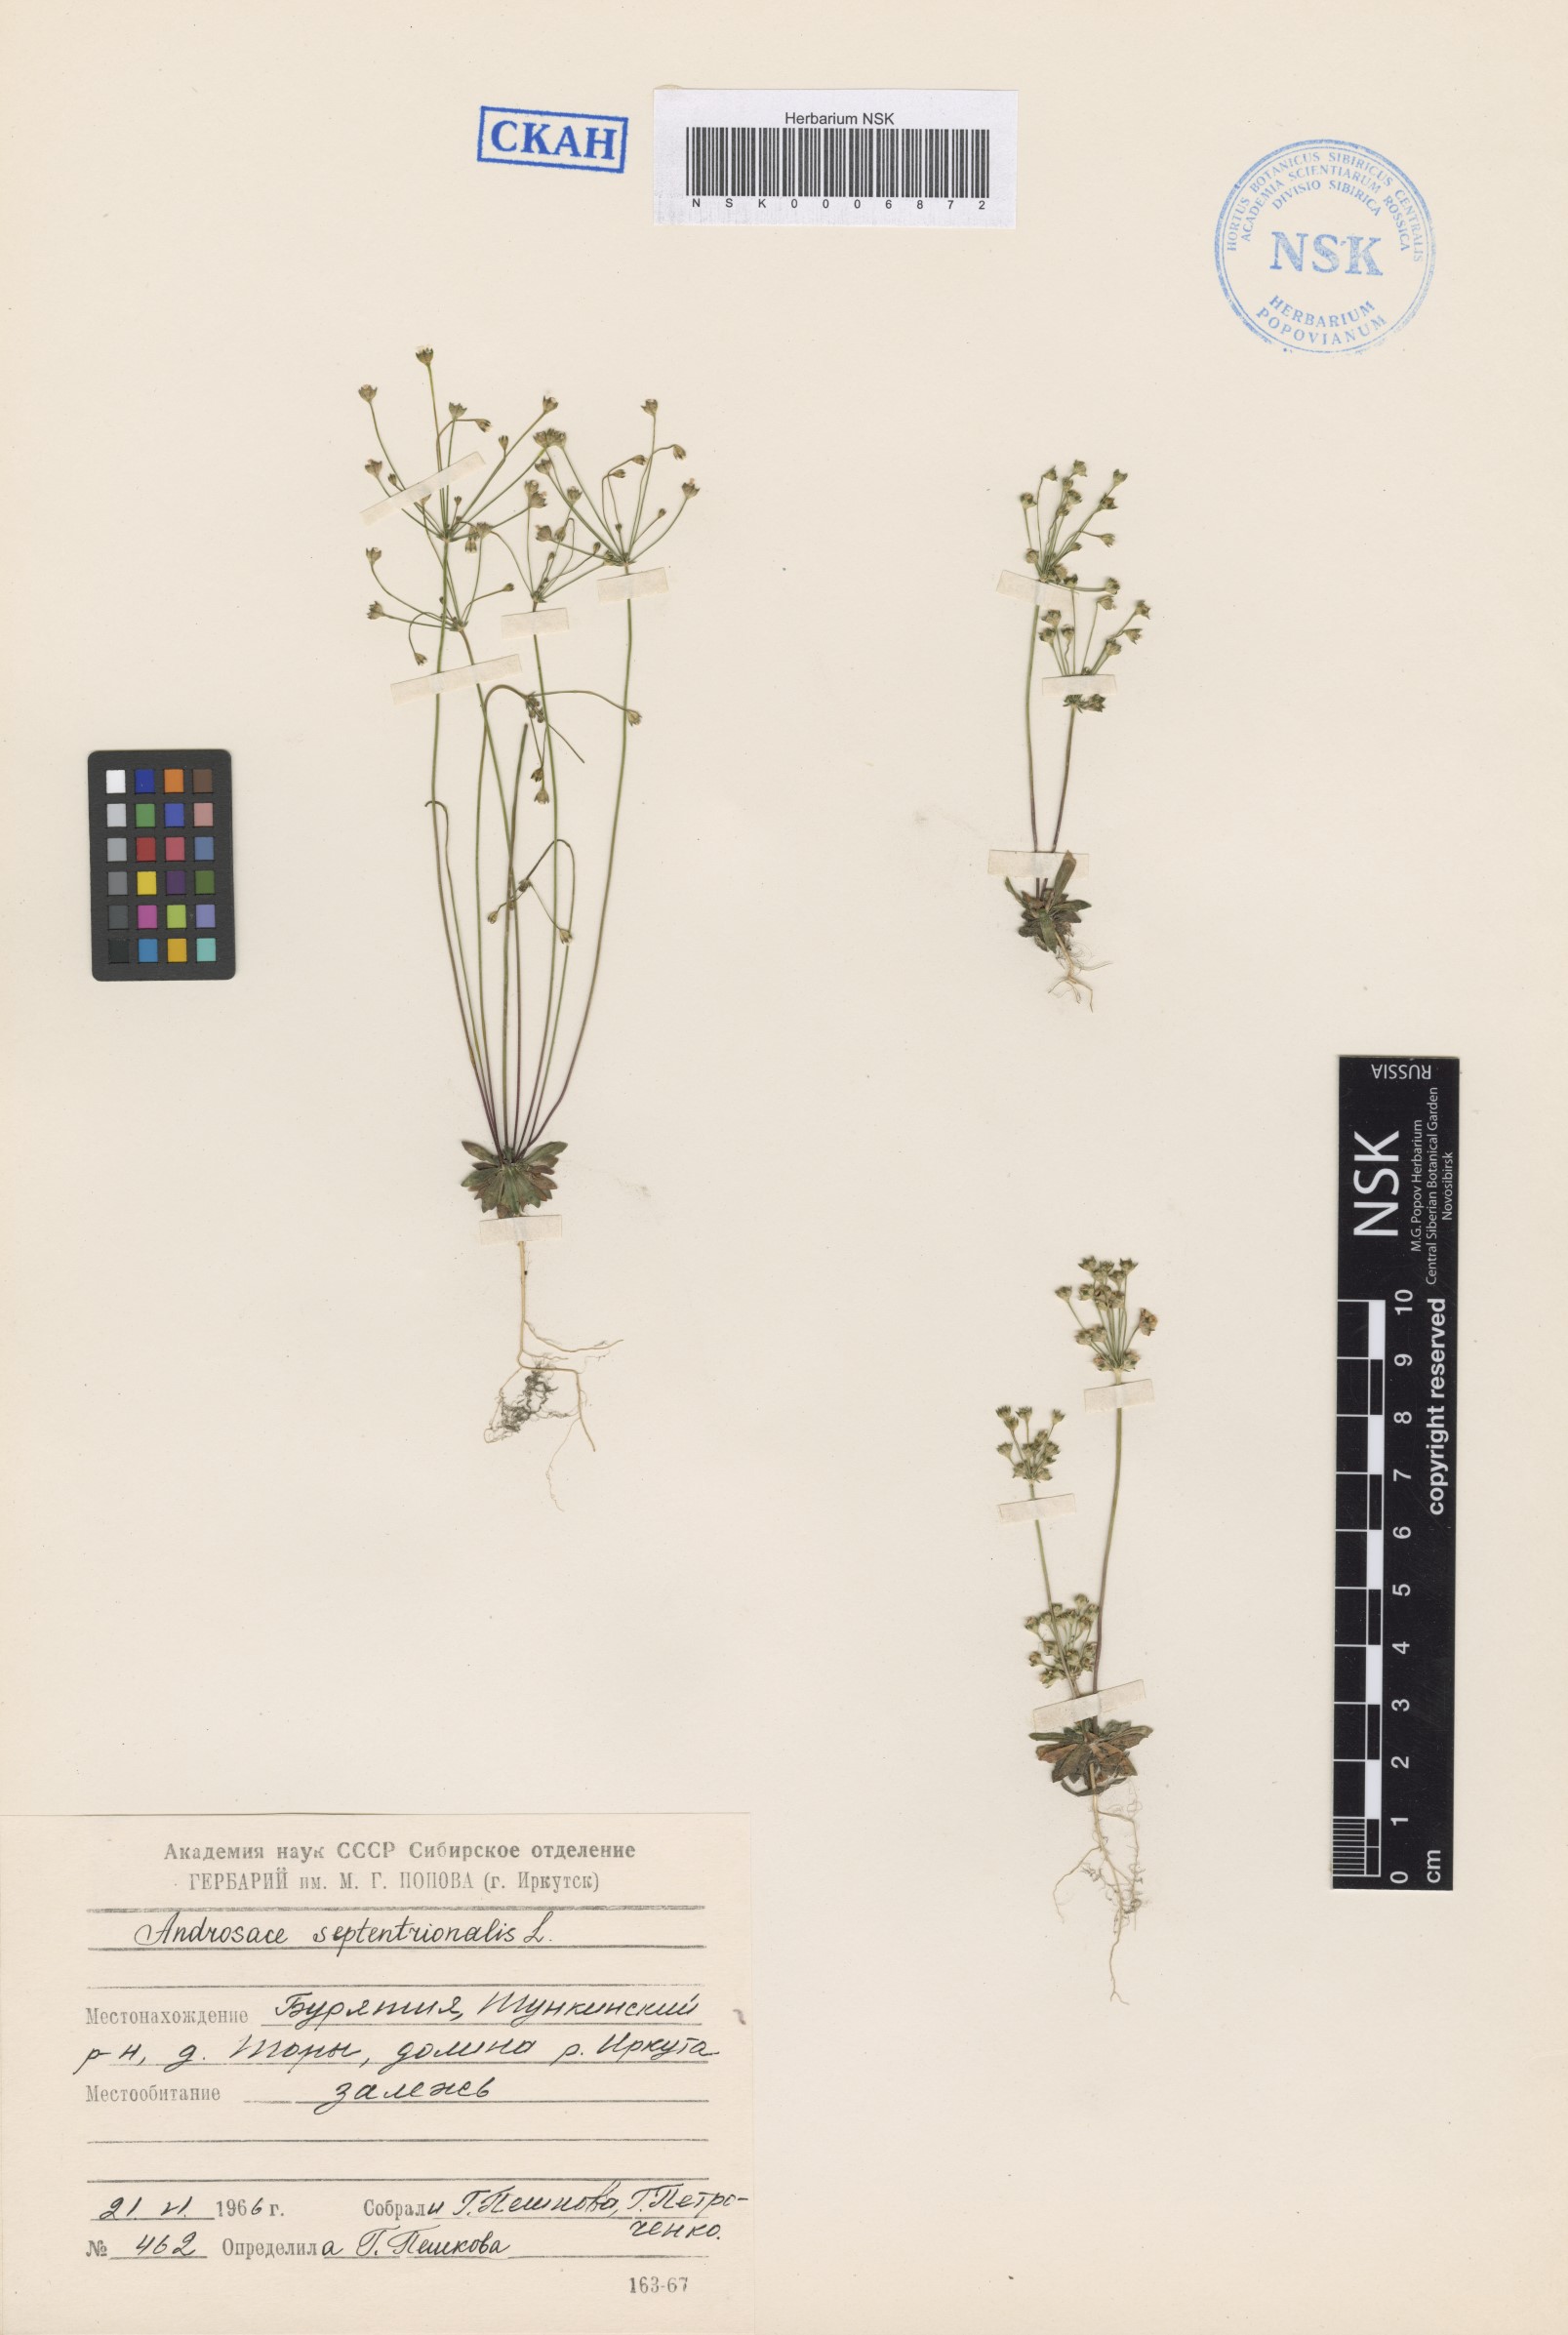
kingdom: Plantae
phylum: Tracheophyta
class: Magnoliopsida
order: Ericales
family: Primulaceae
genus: Androsace
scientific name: Androsace septentrionalis
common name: Hairy northern fairy-candelabra
